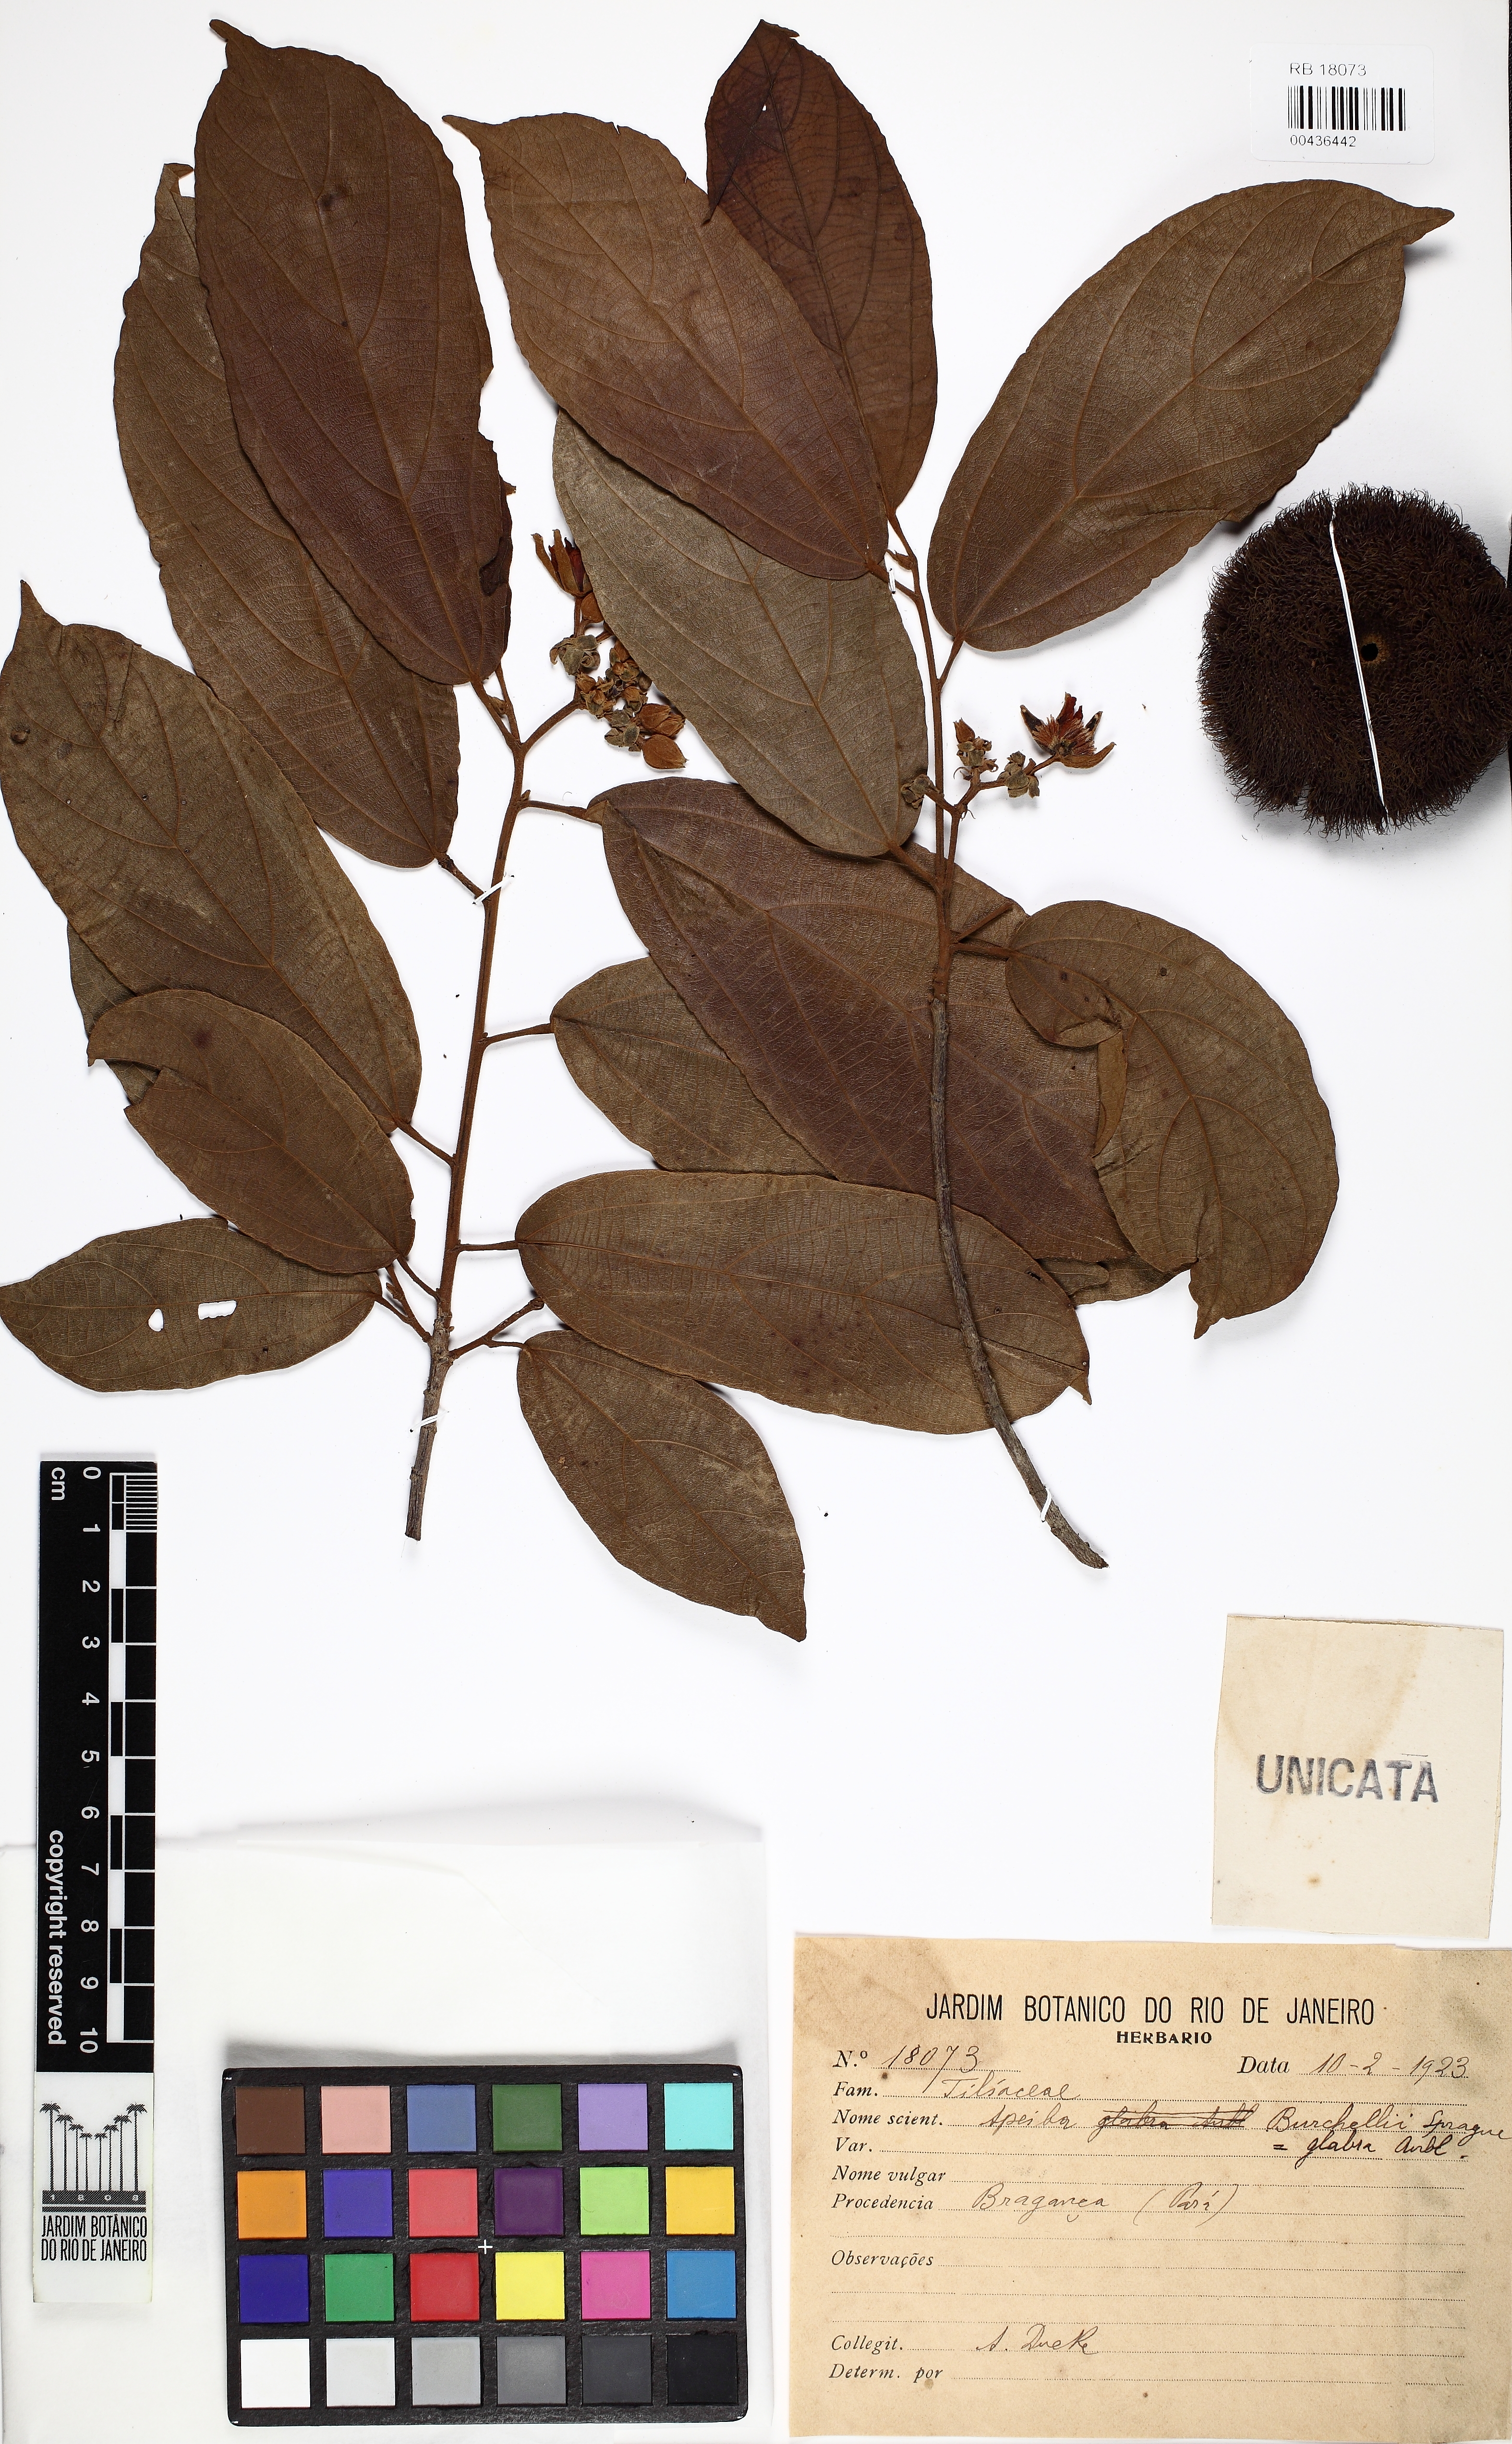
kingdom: Plantae
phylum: Tracheophyta
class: Magnoliopsida
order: Malvales
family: Malvaceae
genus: Apeiba
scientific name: Apeiba glabra
